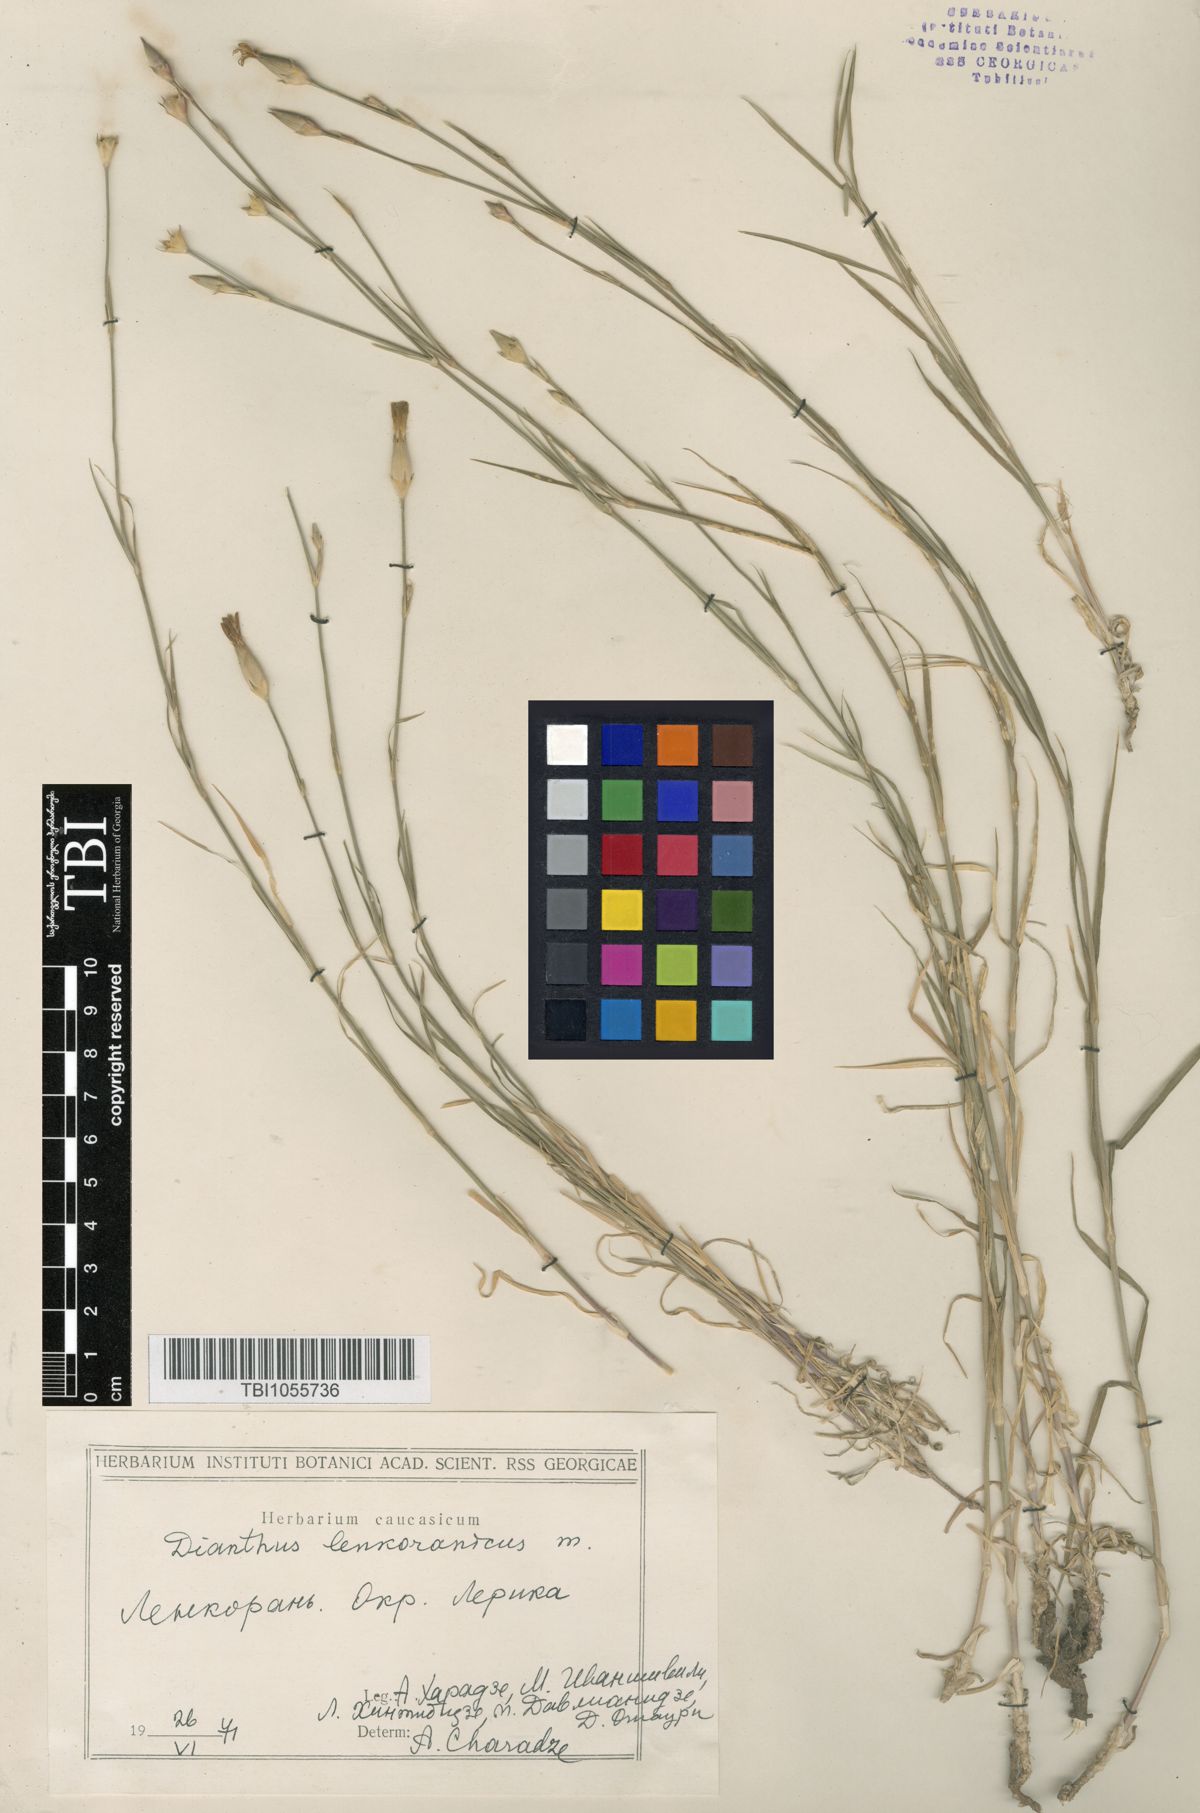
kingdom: Plantae
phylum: Tracheophyta
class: Magnoliopsida
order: Caryophyllales
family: Caryophyllaceae
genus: Dianthus
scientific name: Dianthus
